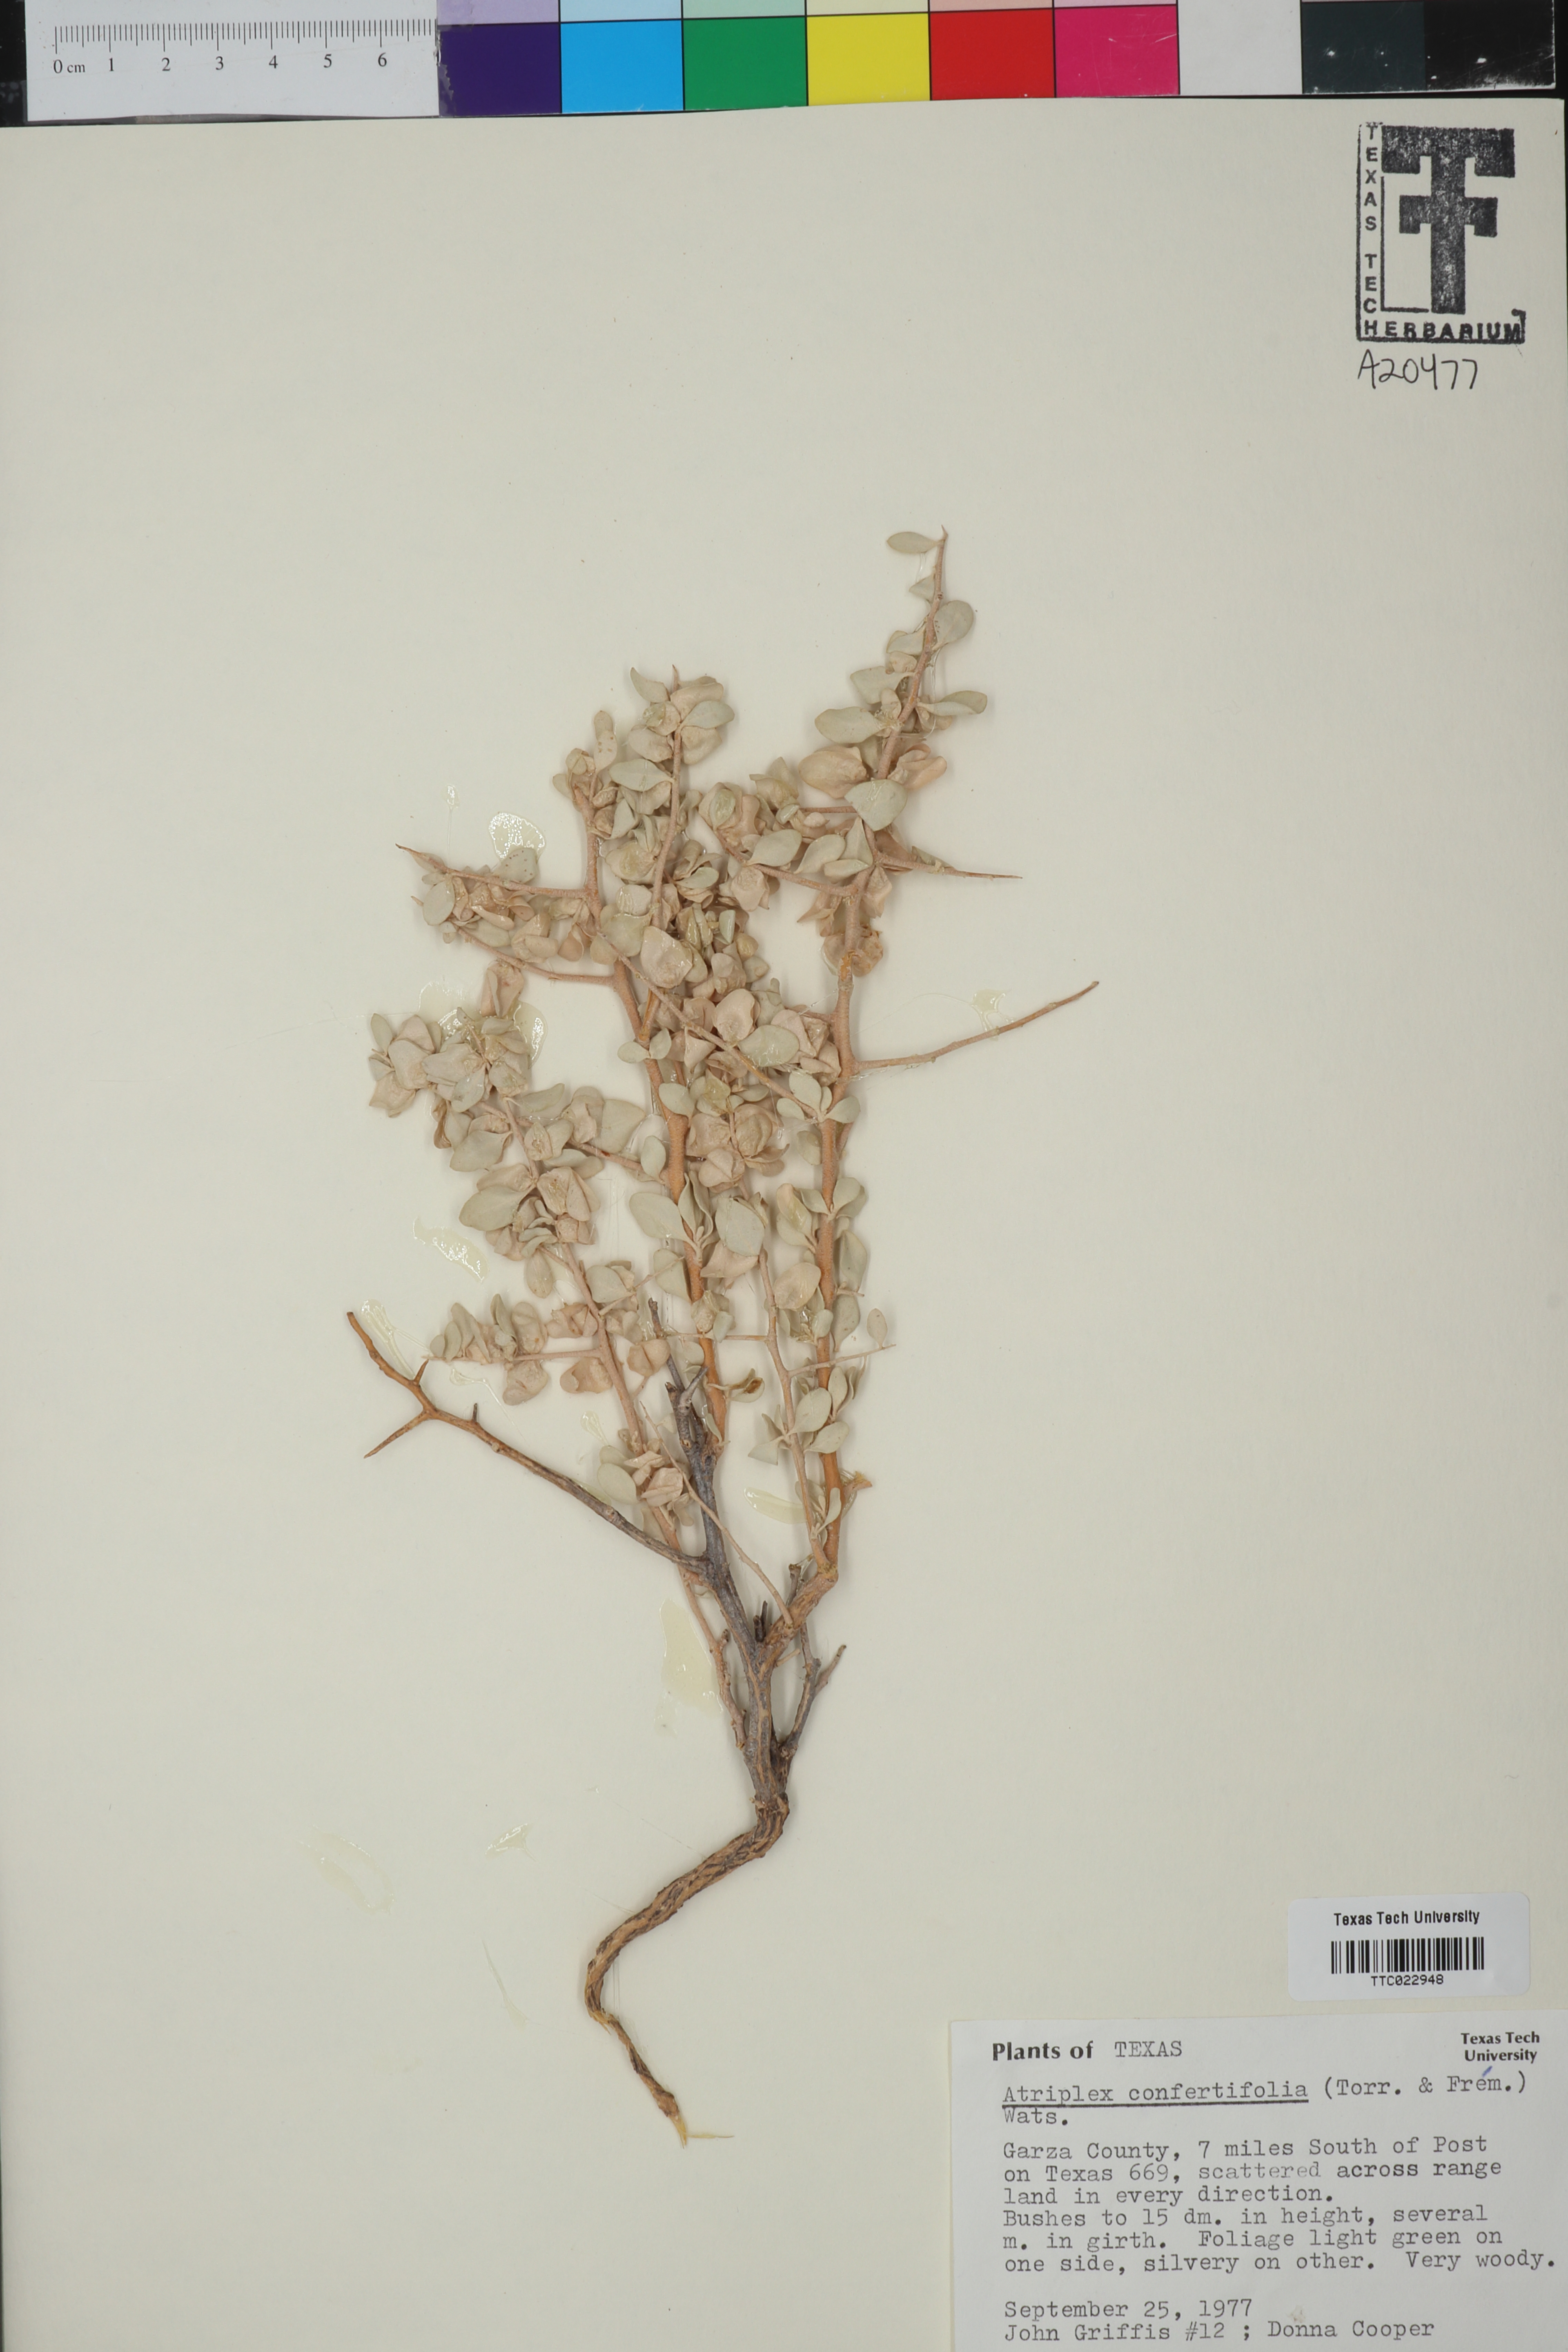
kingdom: Plantae
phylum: Tracheophyta
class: Magnoliopsida
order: Caryophyllales
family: Amaranthaceae
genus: Atriplex
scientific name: Atriplex confertifolia
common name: Shadscale
